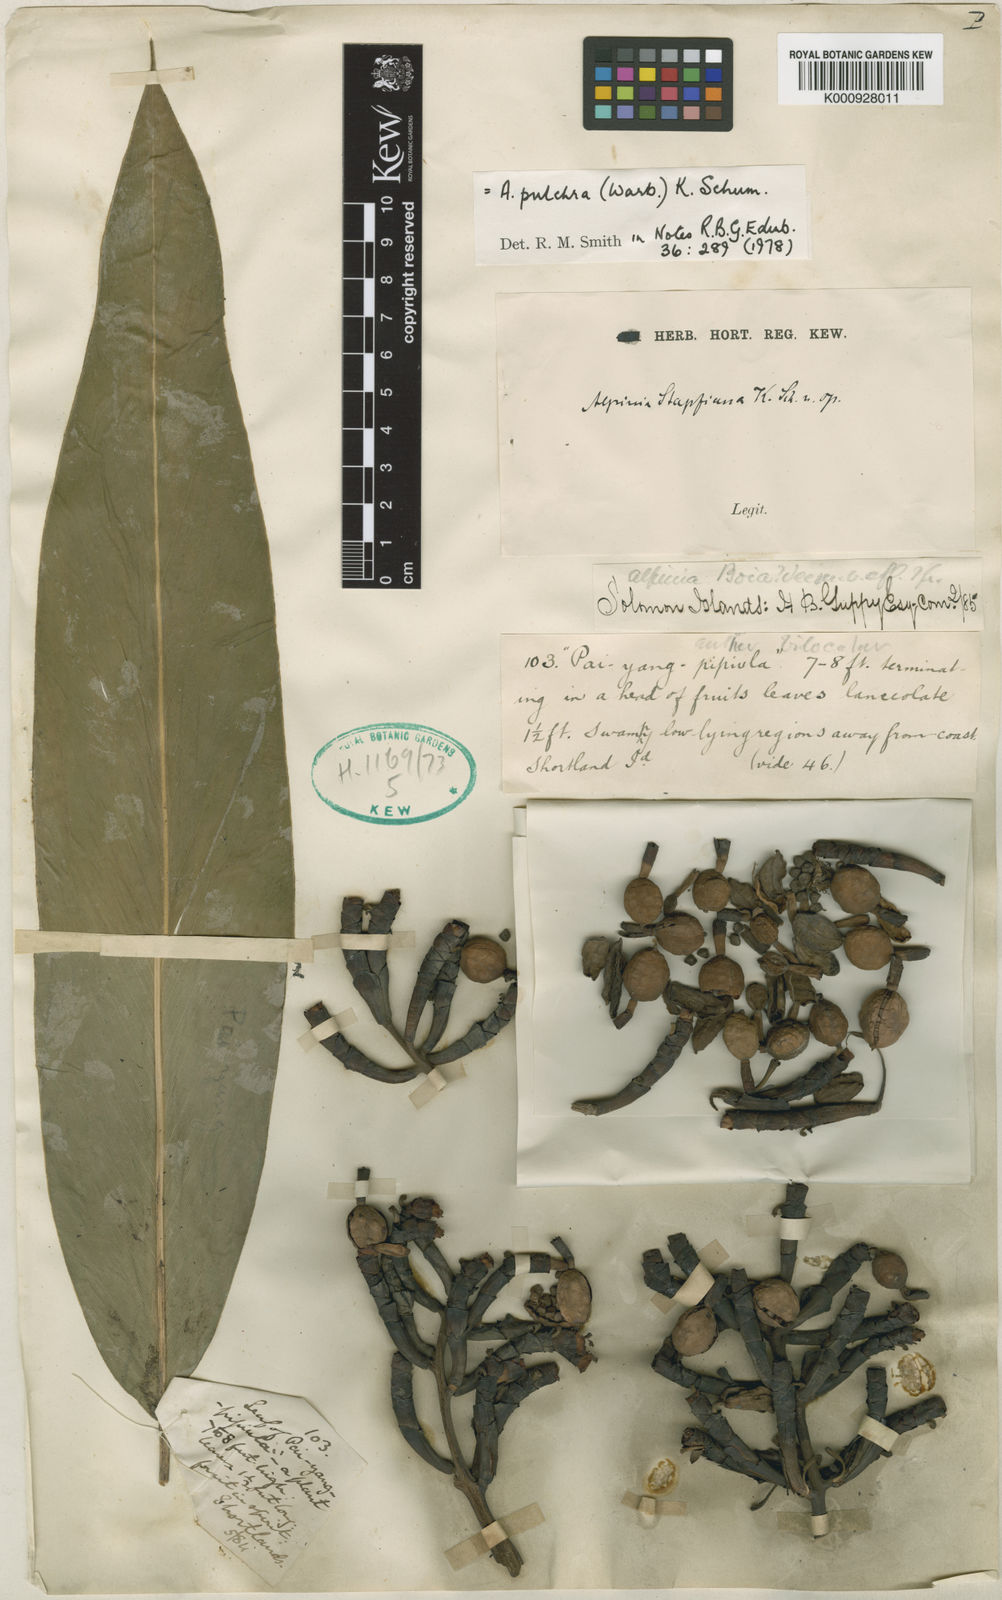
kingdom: Plantae
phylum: Tracheophyta
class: Liliopsida
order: Zingiberales
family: Zingiberaceae
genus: Alpinia
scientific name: Alpinia pulchra
